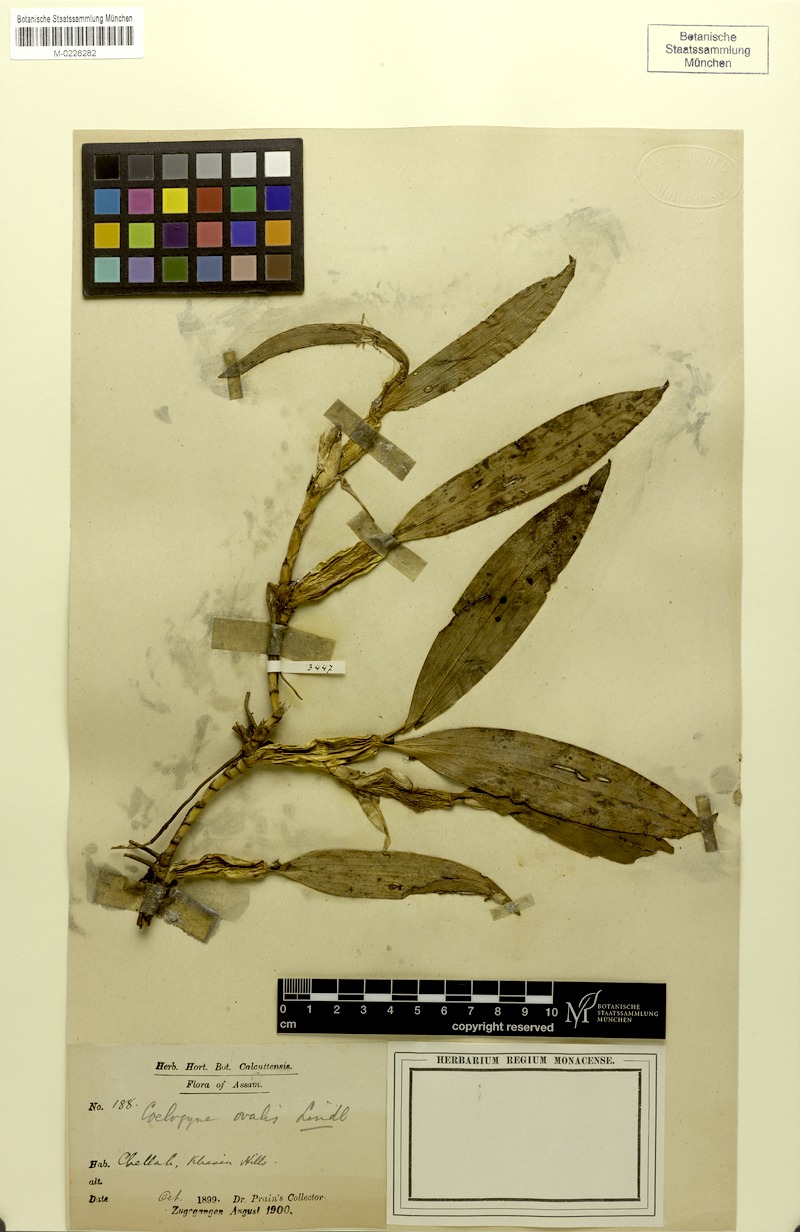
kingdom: Plantae
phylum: Tracheophyta
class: Liliopsida
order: Asparagales
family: Orchidaceae
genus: Coelogyne
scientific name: Coelogyne ovalis
